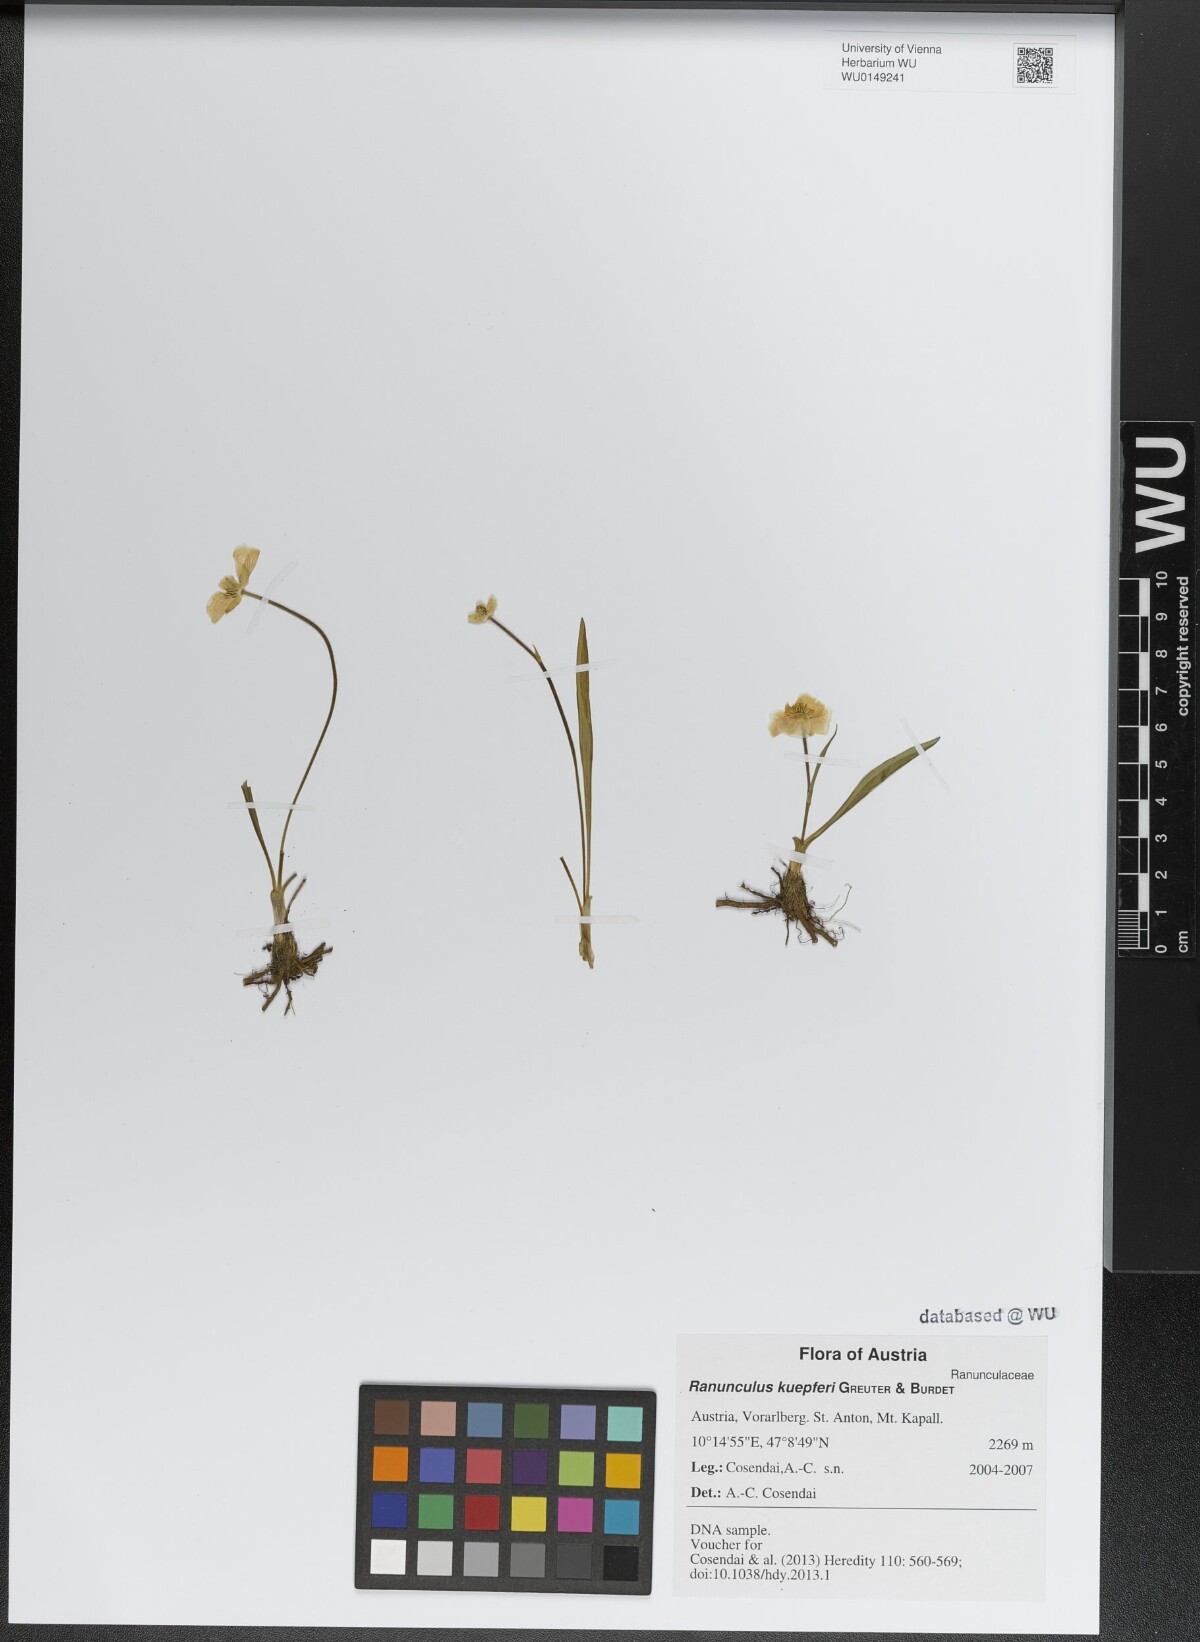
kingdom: Plantae
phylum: Tracheophyta
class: Magnoliopsida
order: Ranunculales
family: Ranunculaceae
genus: Ranunculus
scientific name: Ranunculus kuepferi
